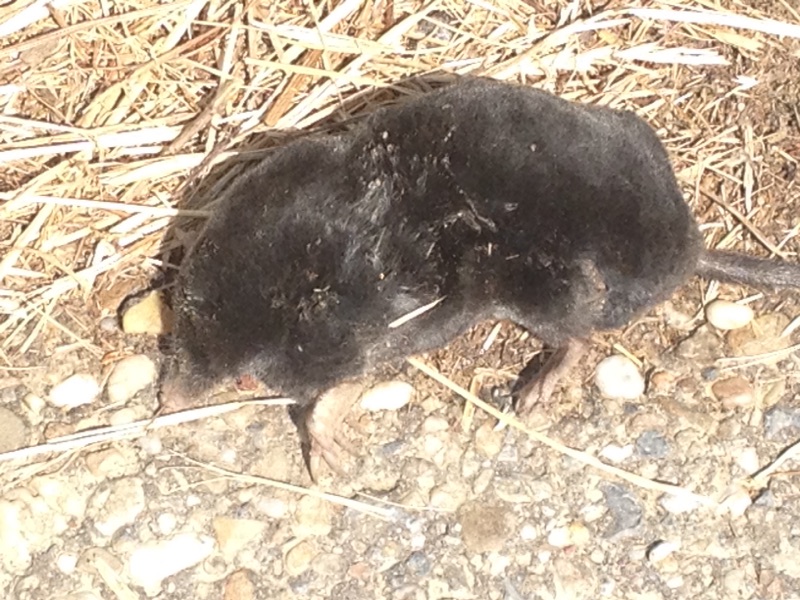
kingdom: Animalia
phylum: Chordata
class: Mammalia
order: Soricomorpha
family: Talpidae
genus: Talpa
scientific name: Talpa europaea
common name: European mole
